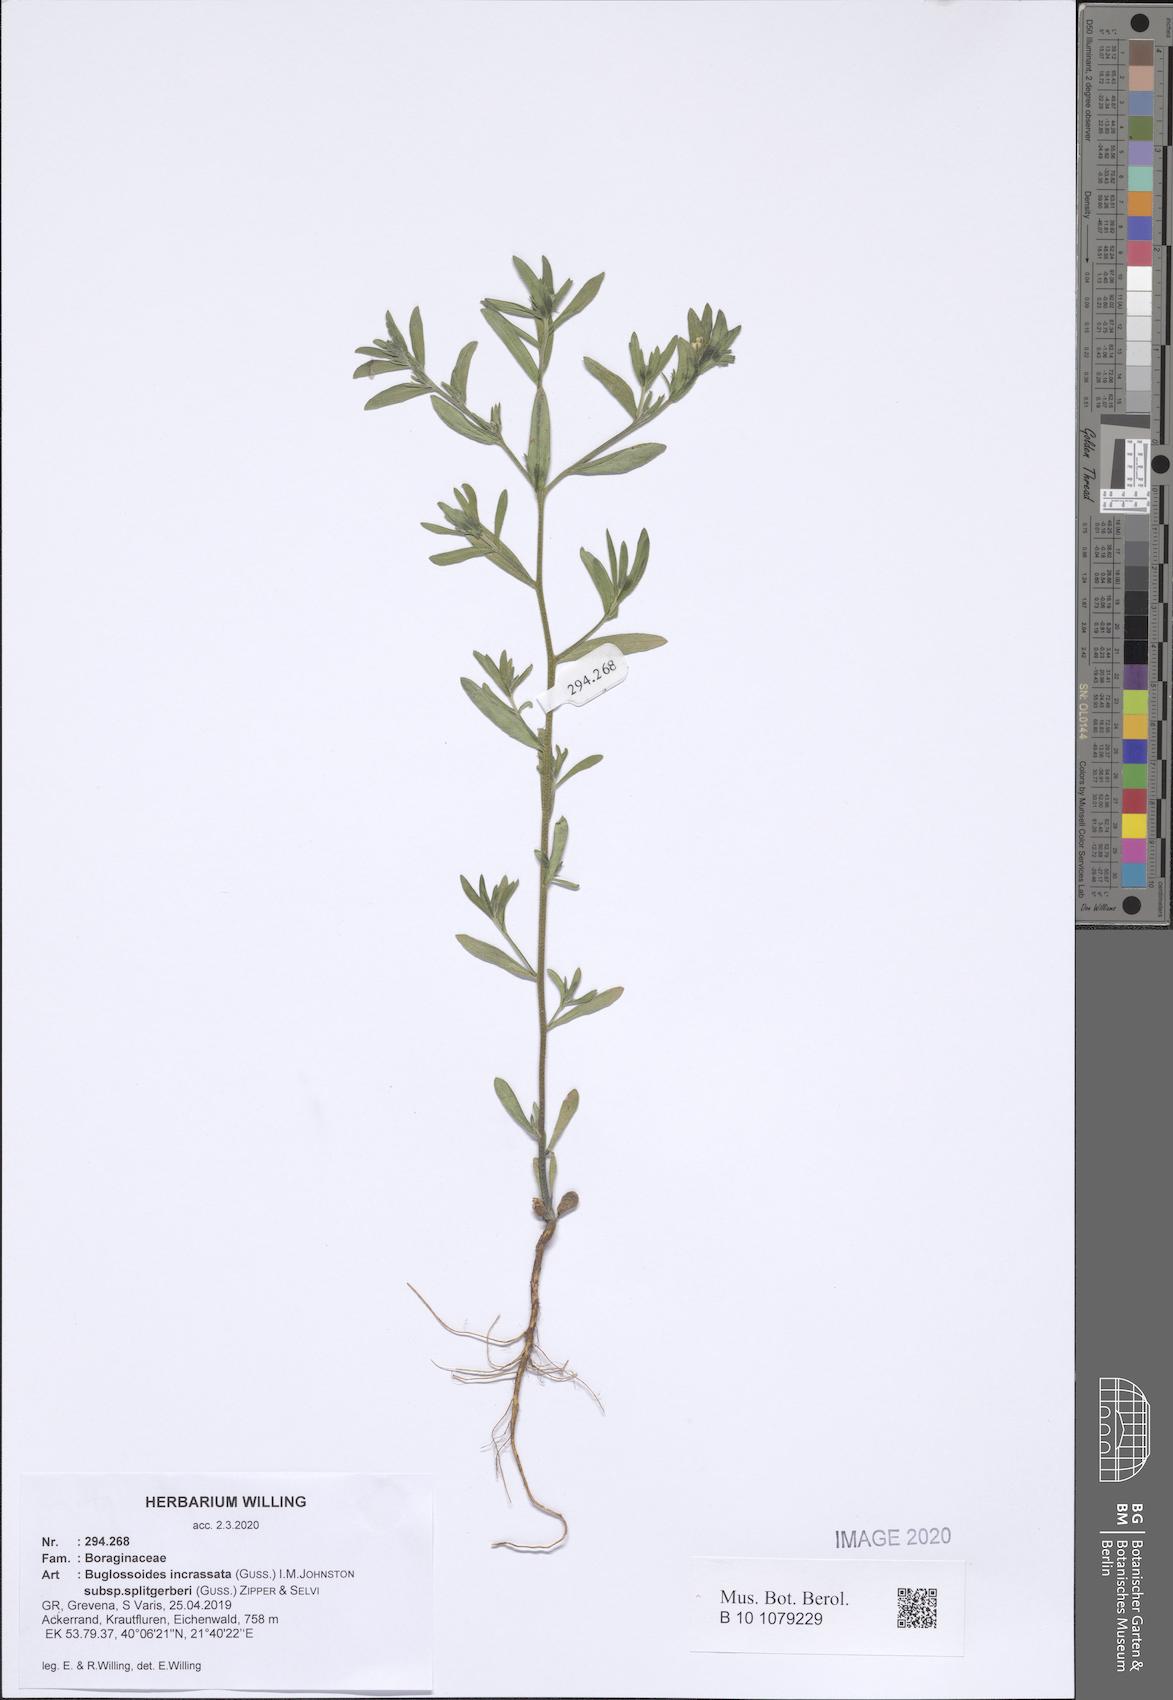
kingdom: Plantae
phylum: Tracheophyta
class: Magnoliopsida
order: Boraginales
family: Boraginaceae
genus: Buglossoides
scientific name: Buglossoides incrassata
